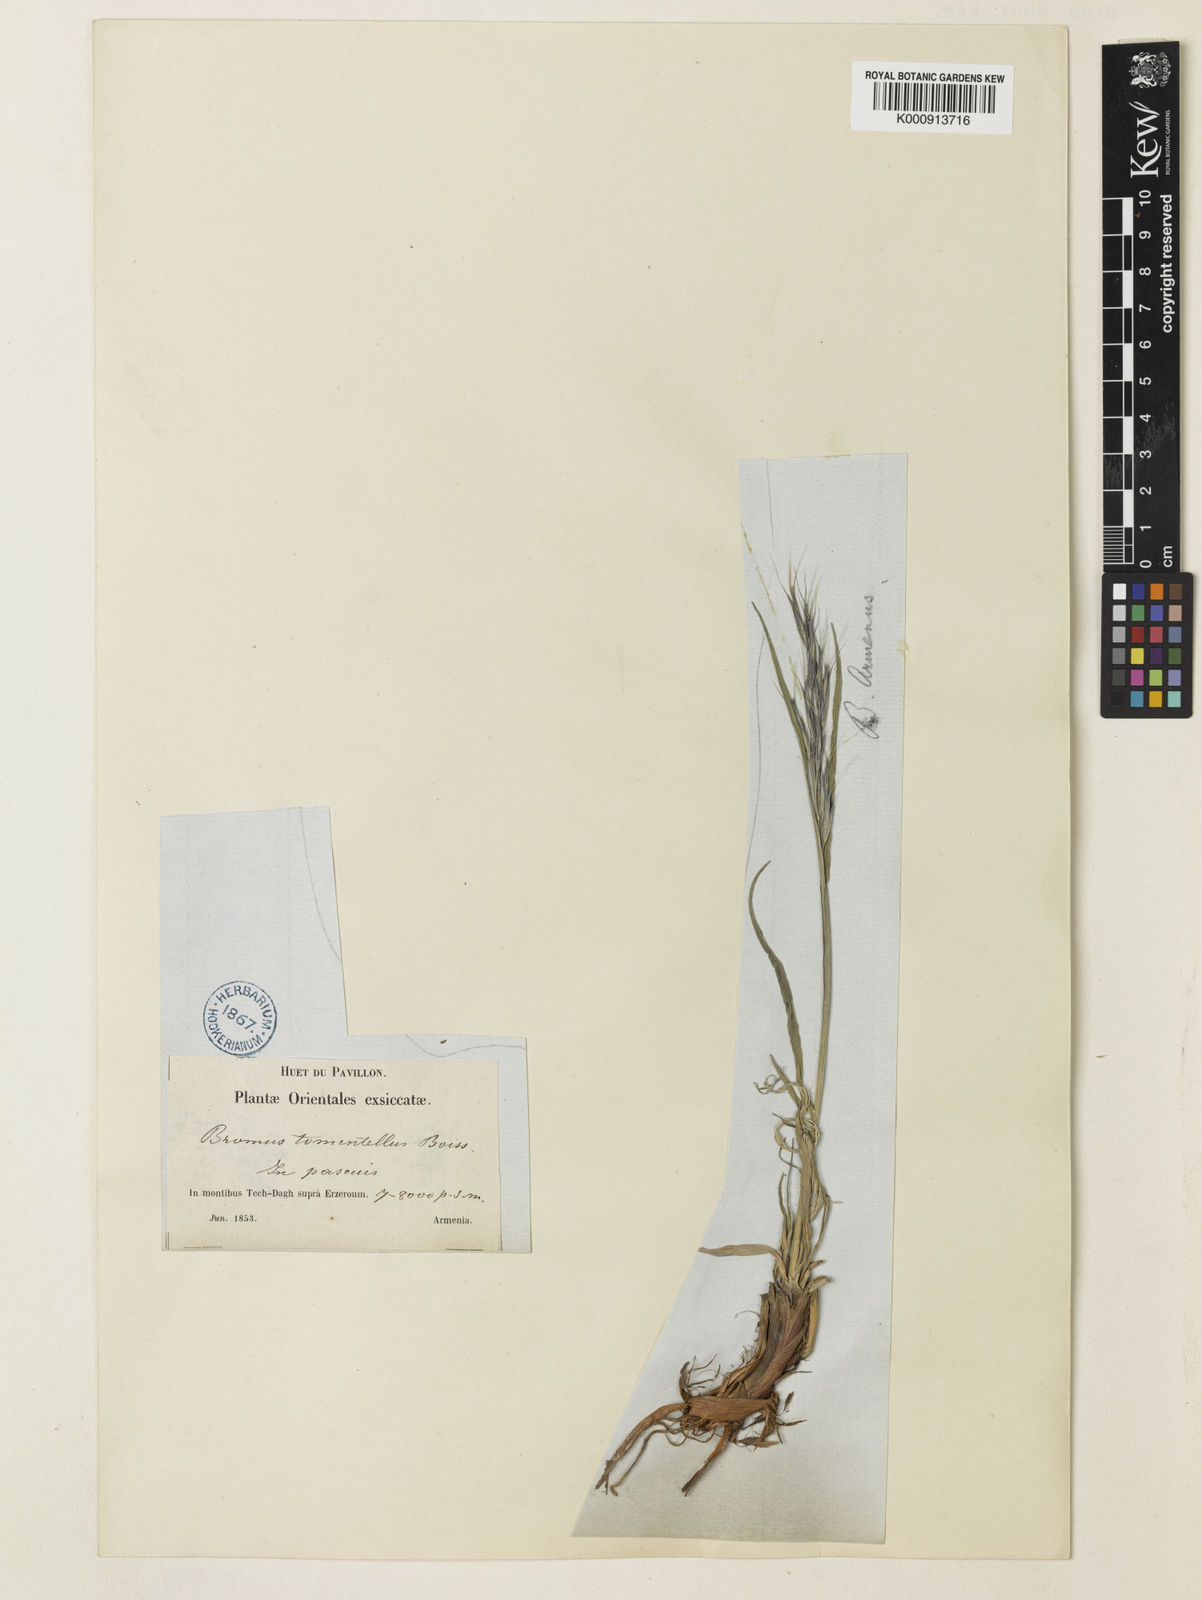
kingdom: Plantae
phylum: Tracheophyta
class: Liliopsida
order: Poales
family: Poaceae
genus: Bromus
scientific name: Bromus armenus
